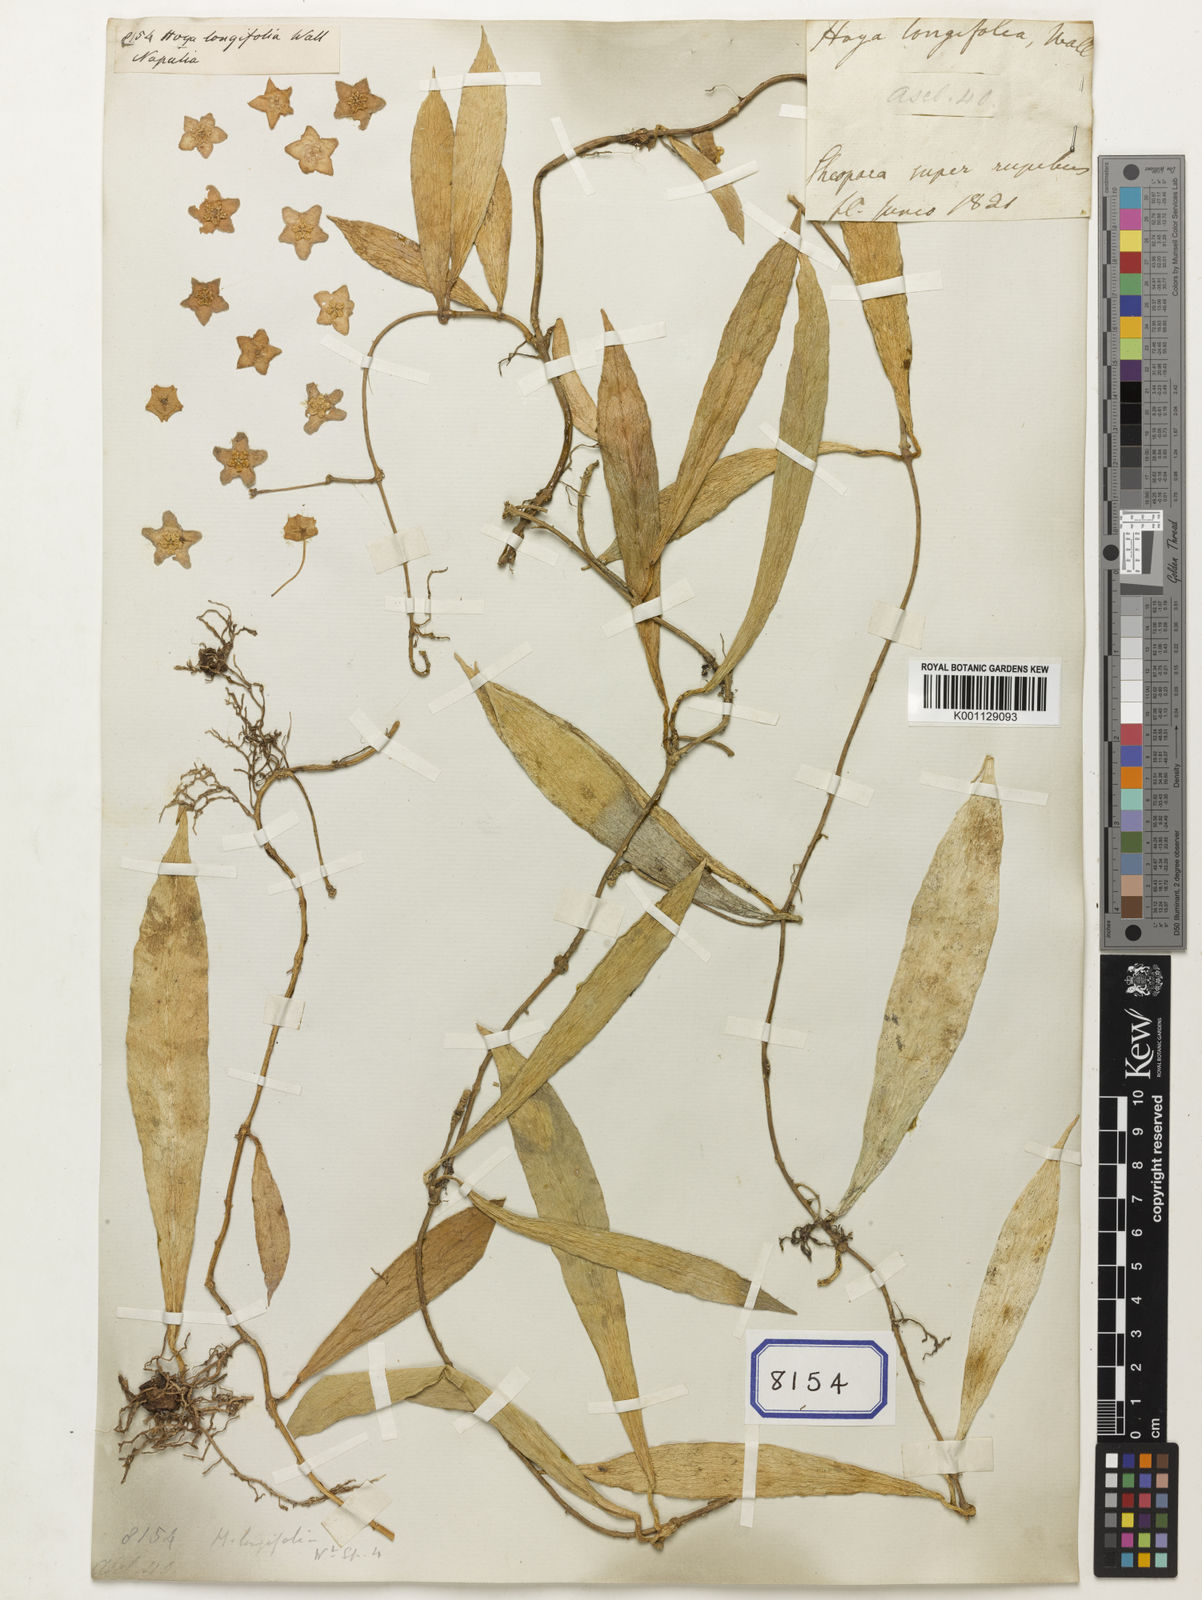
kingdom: Plantae
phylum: Tracheophyta
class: Magnoliopsida
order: Gentianales
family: Apocynaceae
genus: Hoya
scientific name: Hoya
